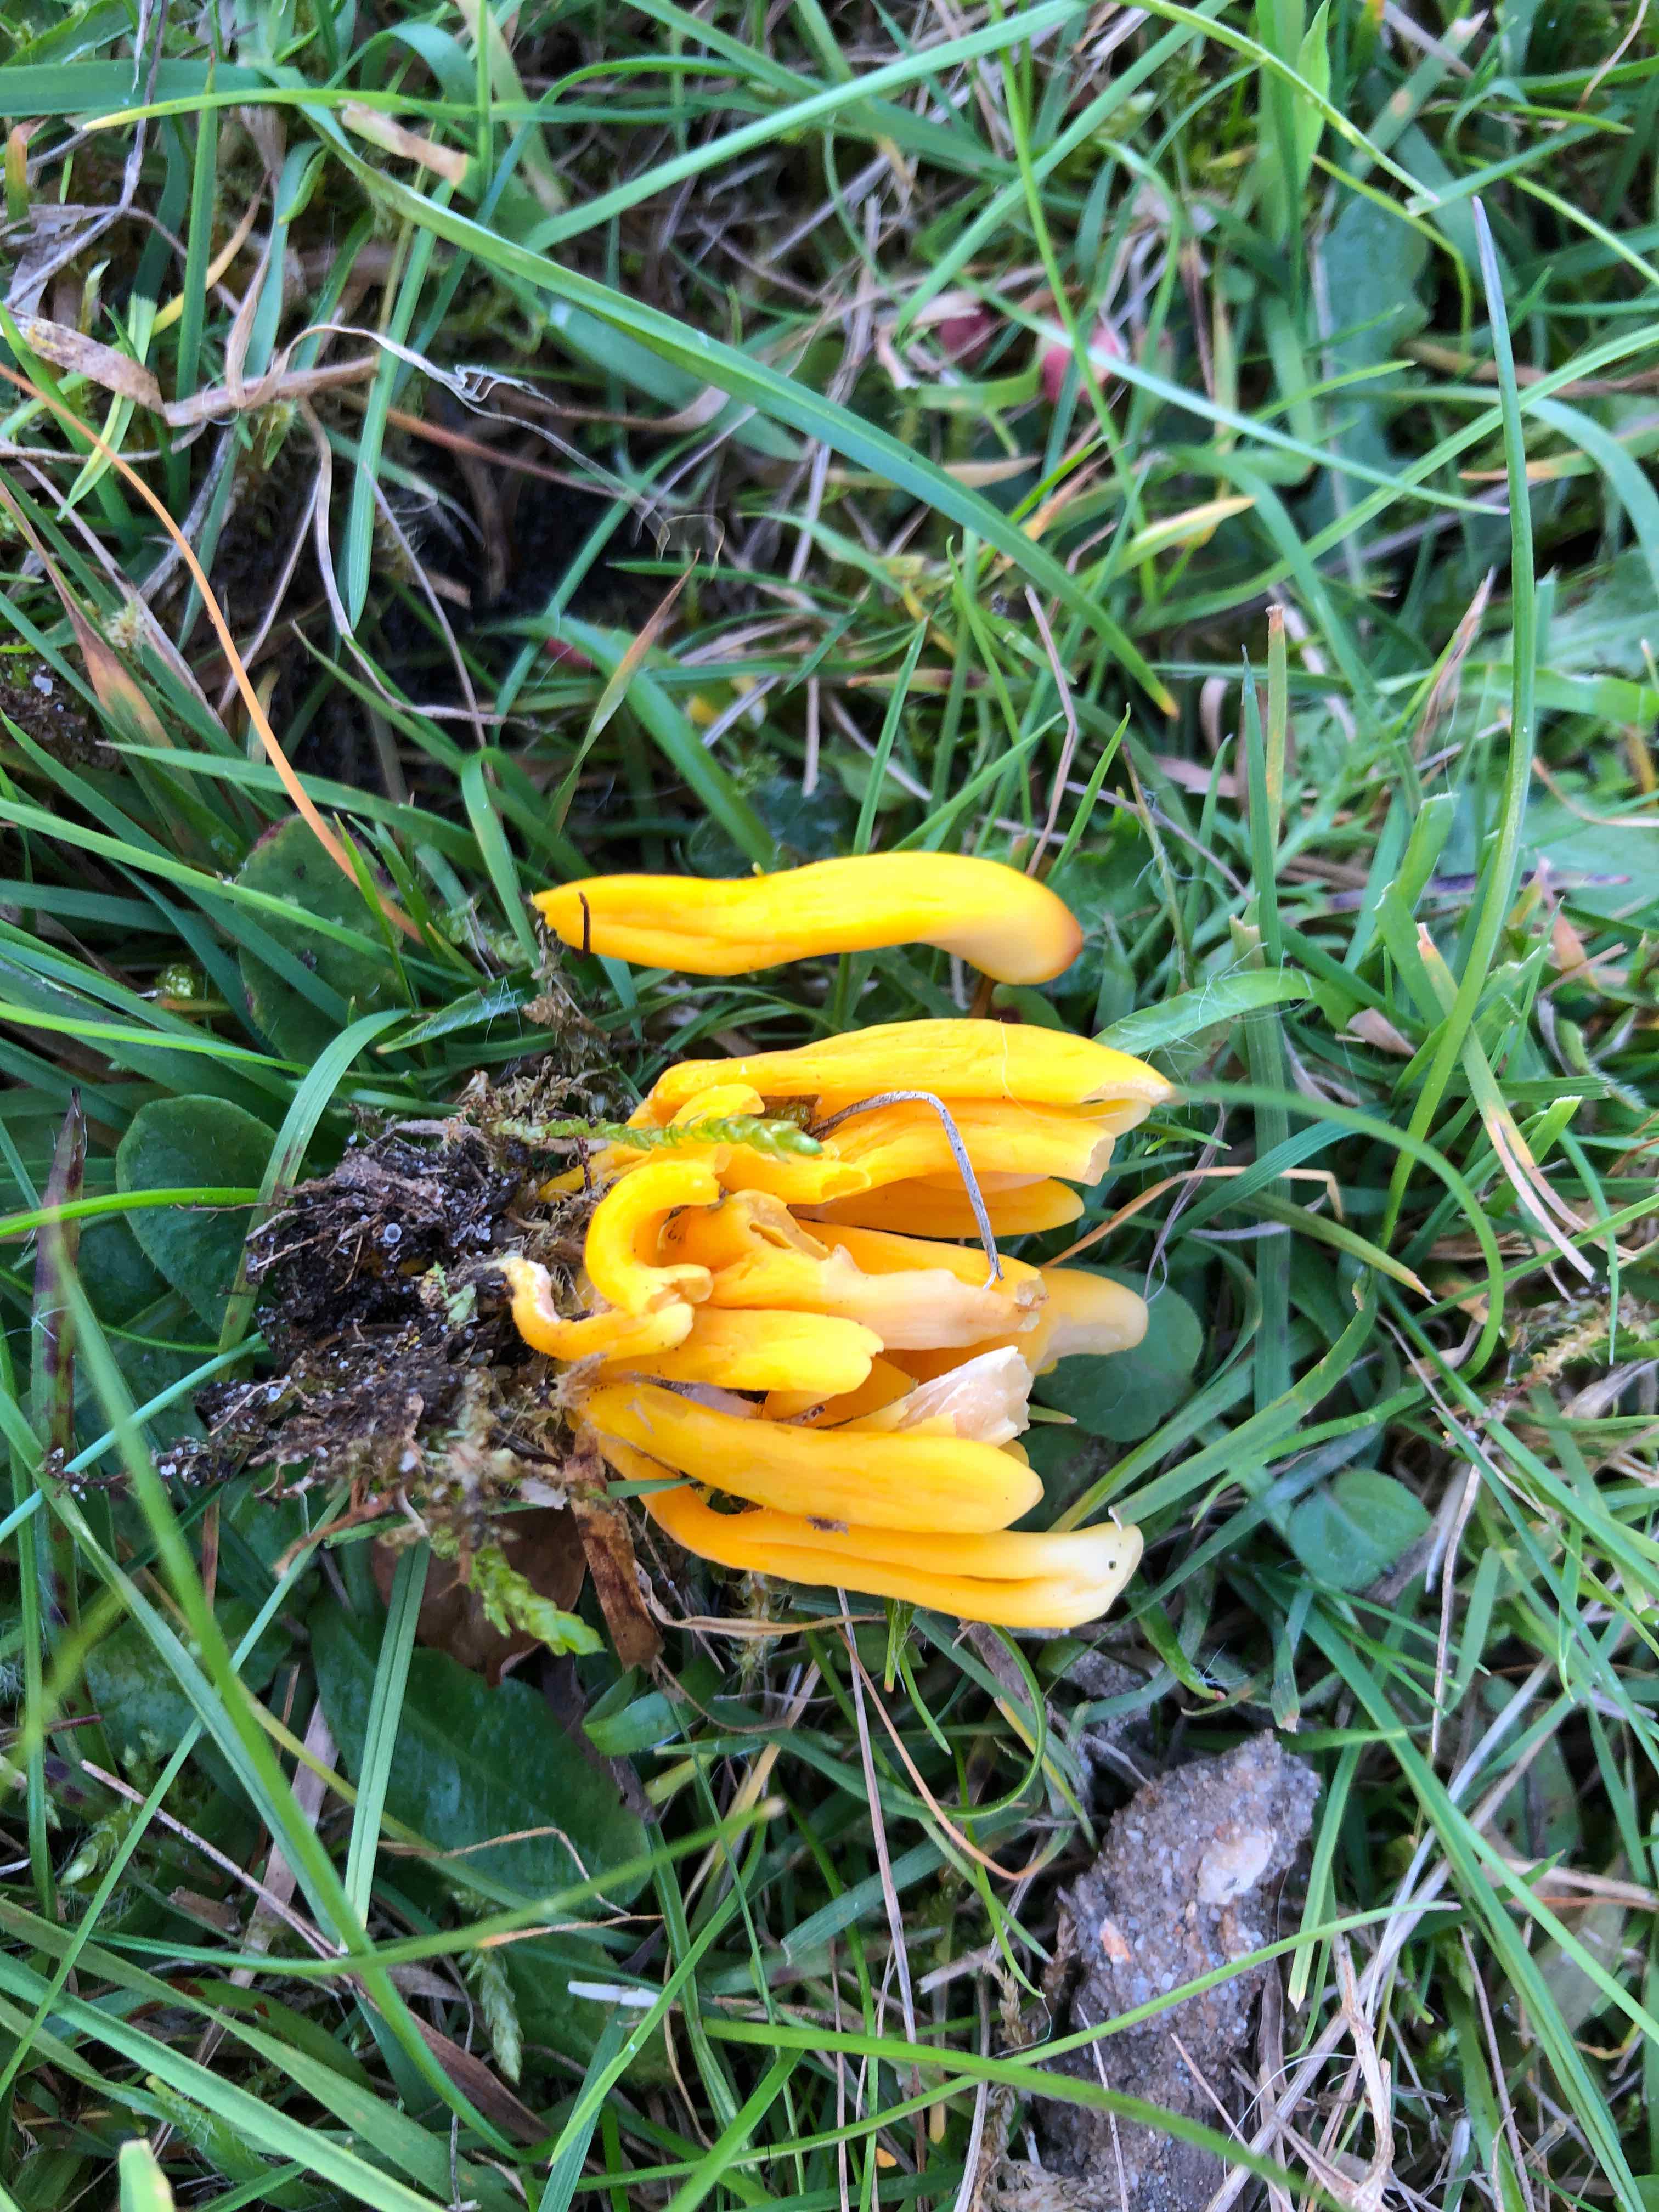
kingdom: Fungi
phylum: Basidiomycota
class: Agaricomycetes
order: Agaricales
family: Clavariaceae
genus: Clavulinopsis
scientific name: Clavulinopsis helvola
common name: orangegul køllesvamp
